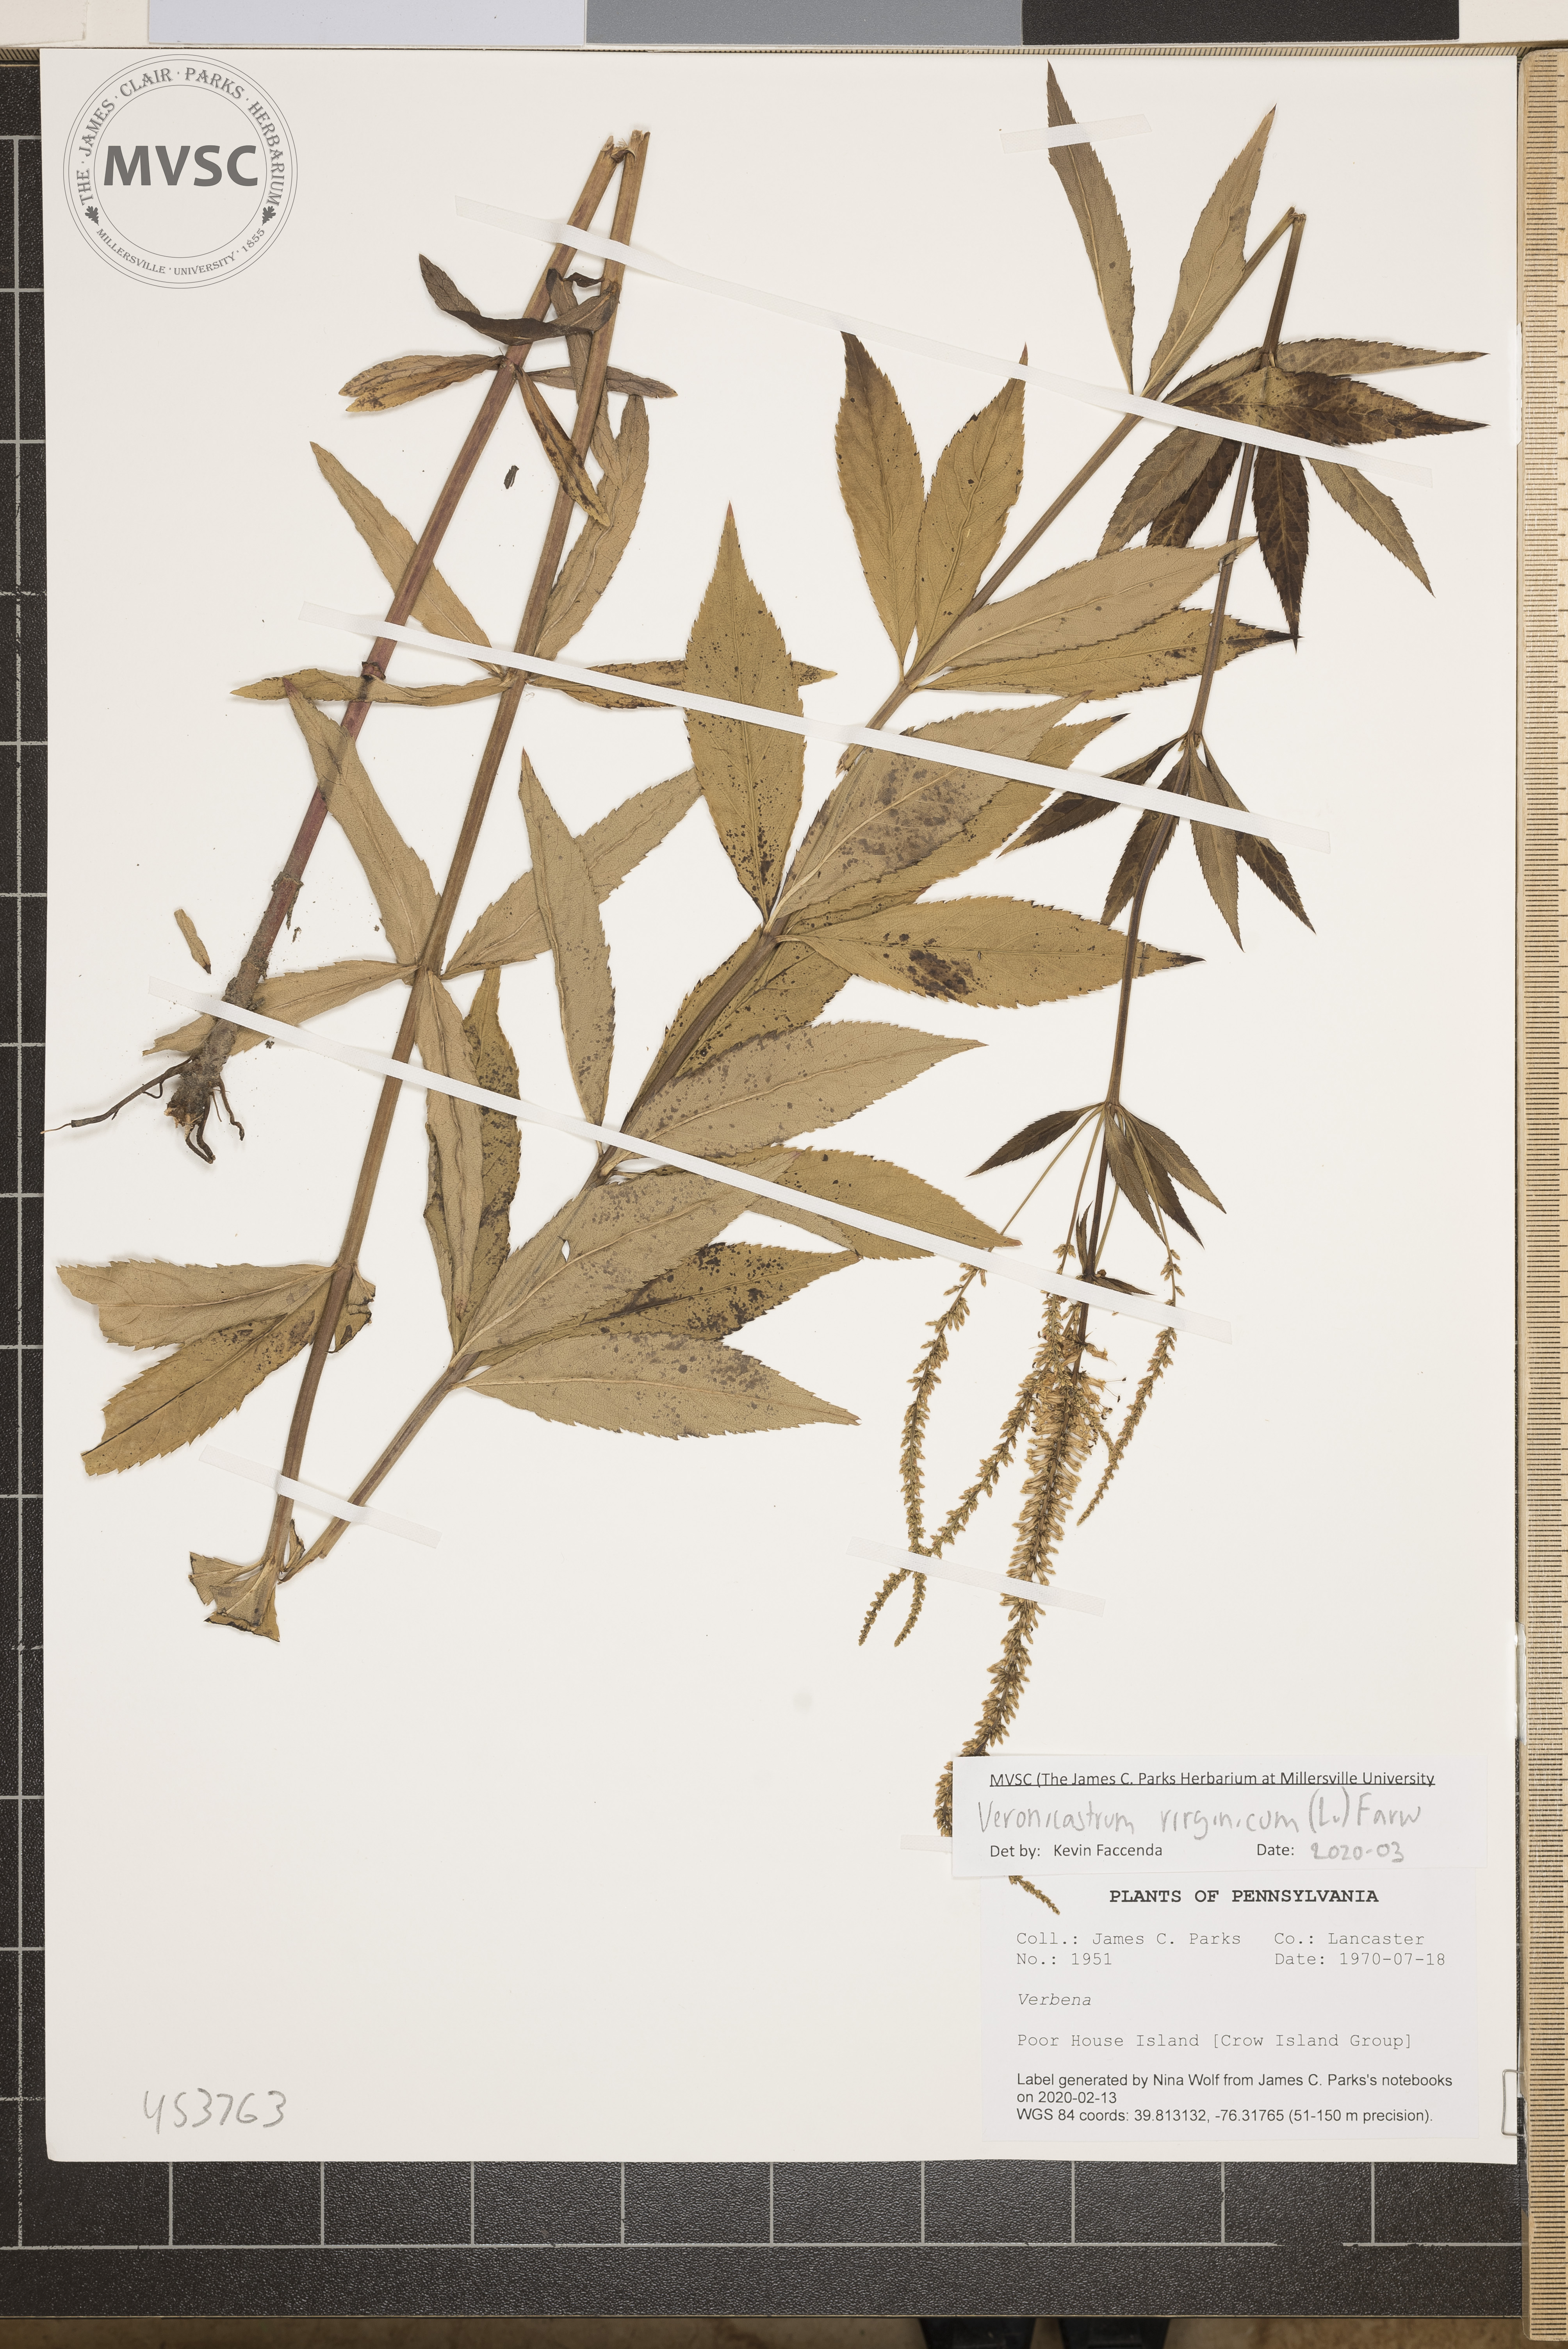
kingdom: Plantae
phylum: Tracheophyta
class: Magnoliopsida
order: Lamiales
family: Plantaginaceae
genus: Veronicastrum
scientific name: Veronicastrum virginicum
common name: Blackroot
